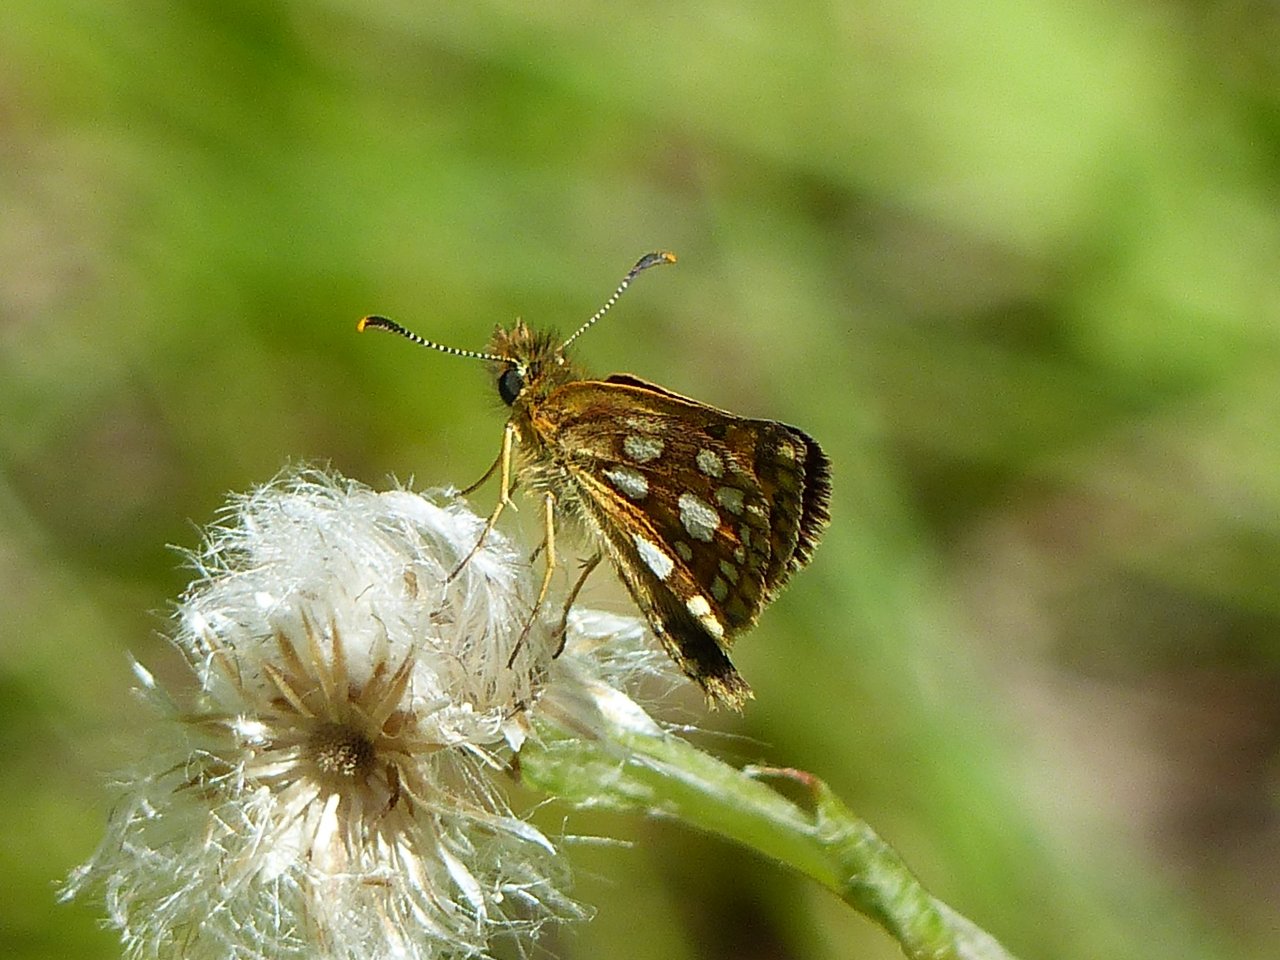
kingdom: Animalia
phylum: Arthropoda
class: Insecta
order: Lepidoptera
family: Hesperiidae
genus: Carterocephalus
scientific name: Carterocephalus palaemon
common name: Chequered Skipper
